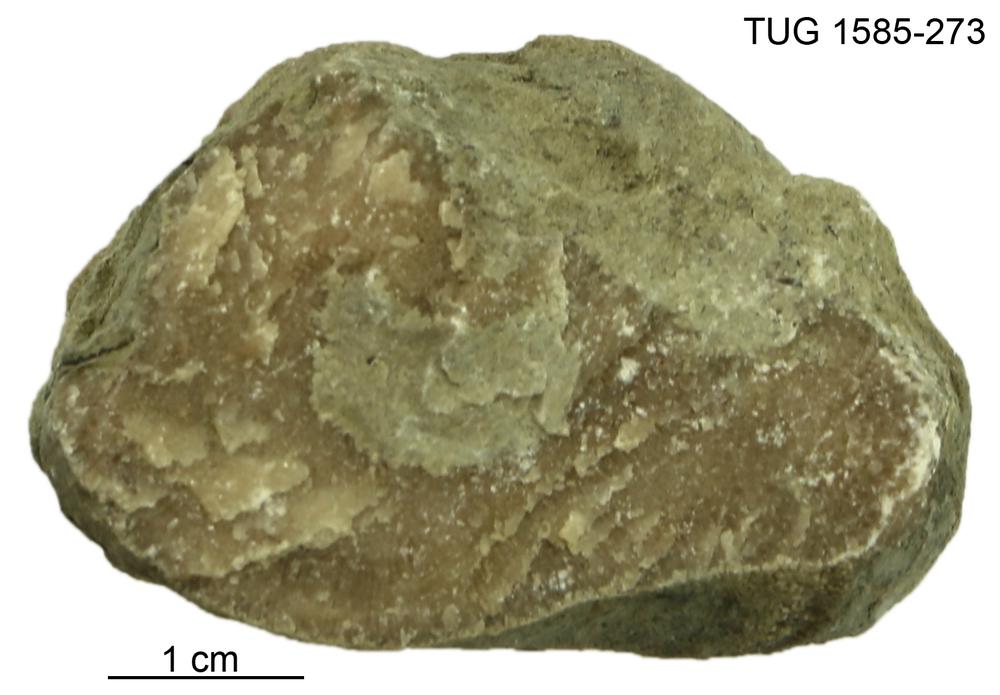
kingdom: Animalia
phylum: Bryozoa
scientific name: Bryozoa
